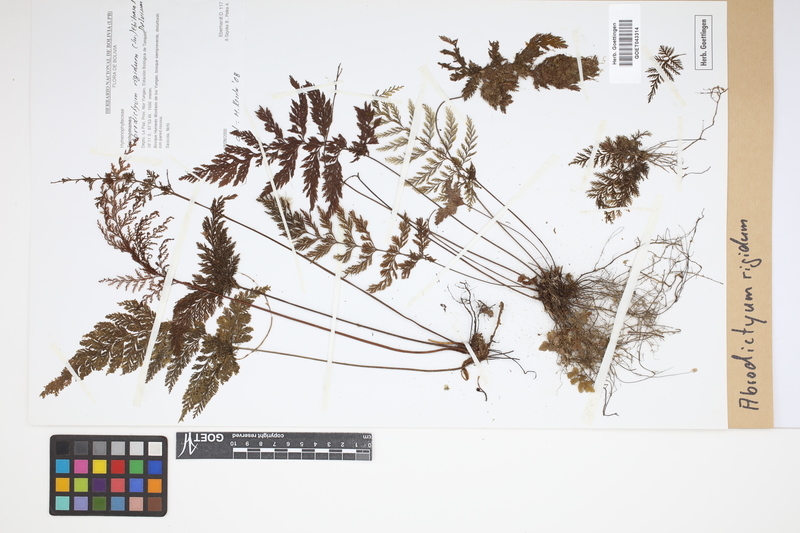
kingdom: Plantae
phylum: Tracheophyta
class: Polypodiopsida
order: Hymenophyllales
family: Hymenophyllaceae
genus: Abrodictyum
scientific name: Abrodictyum rigidum
